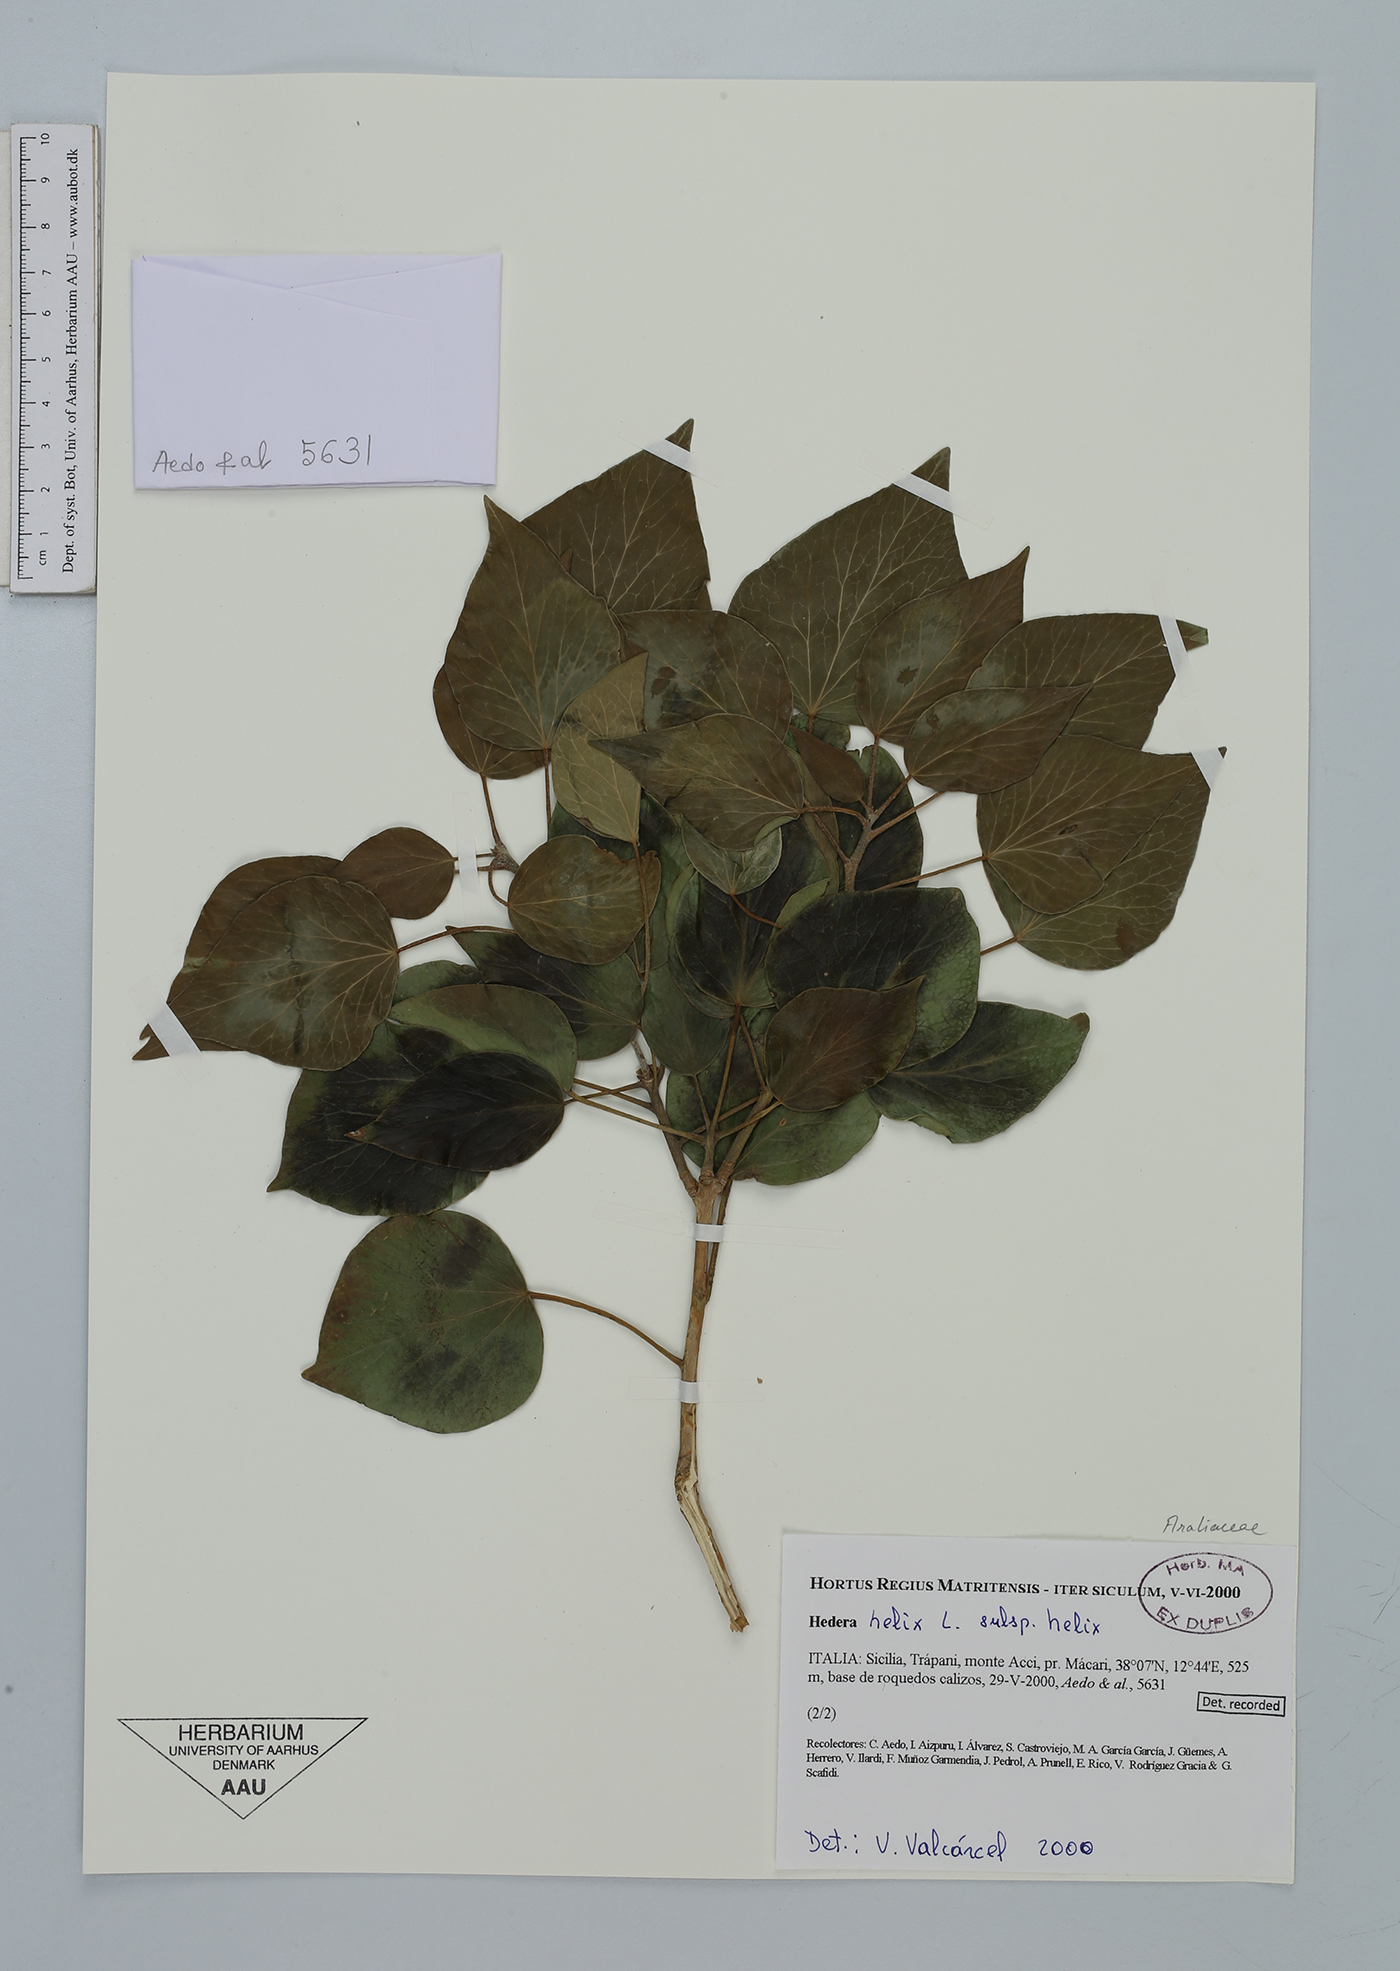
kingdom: Plantae
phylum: Tracheophyta
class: Magnoliopsida
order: Apiales
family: Araliaceae
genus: Hedera
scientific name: Hedera helix
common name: Ivy
